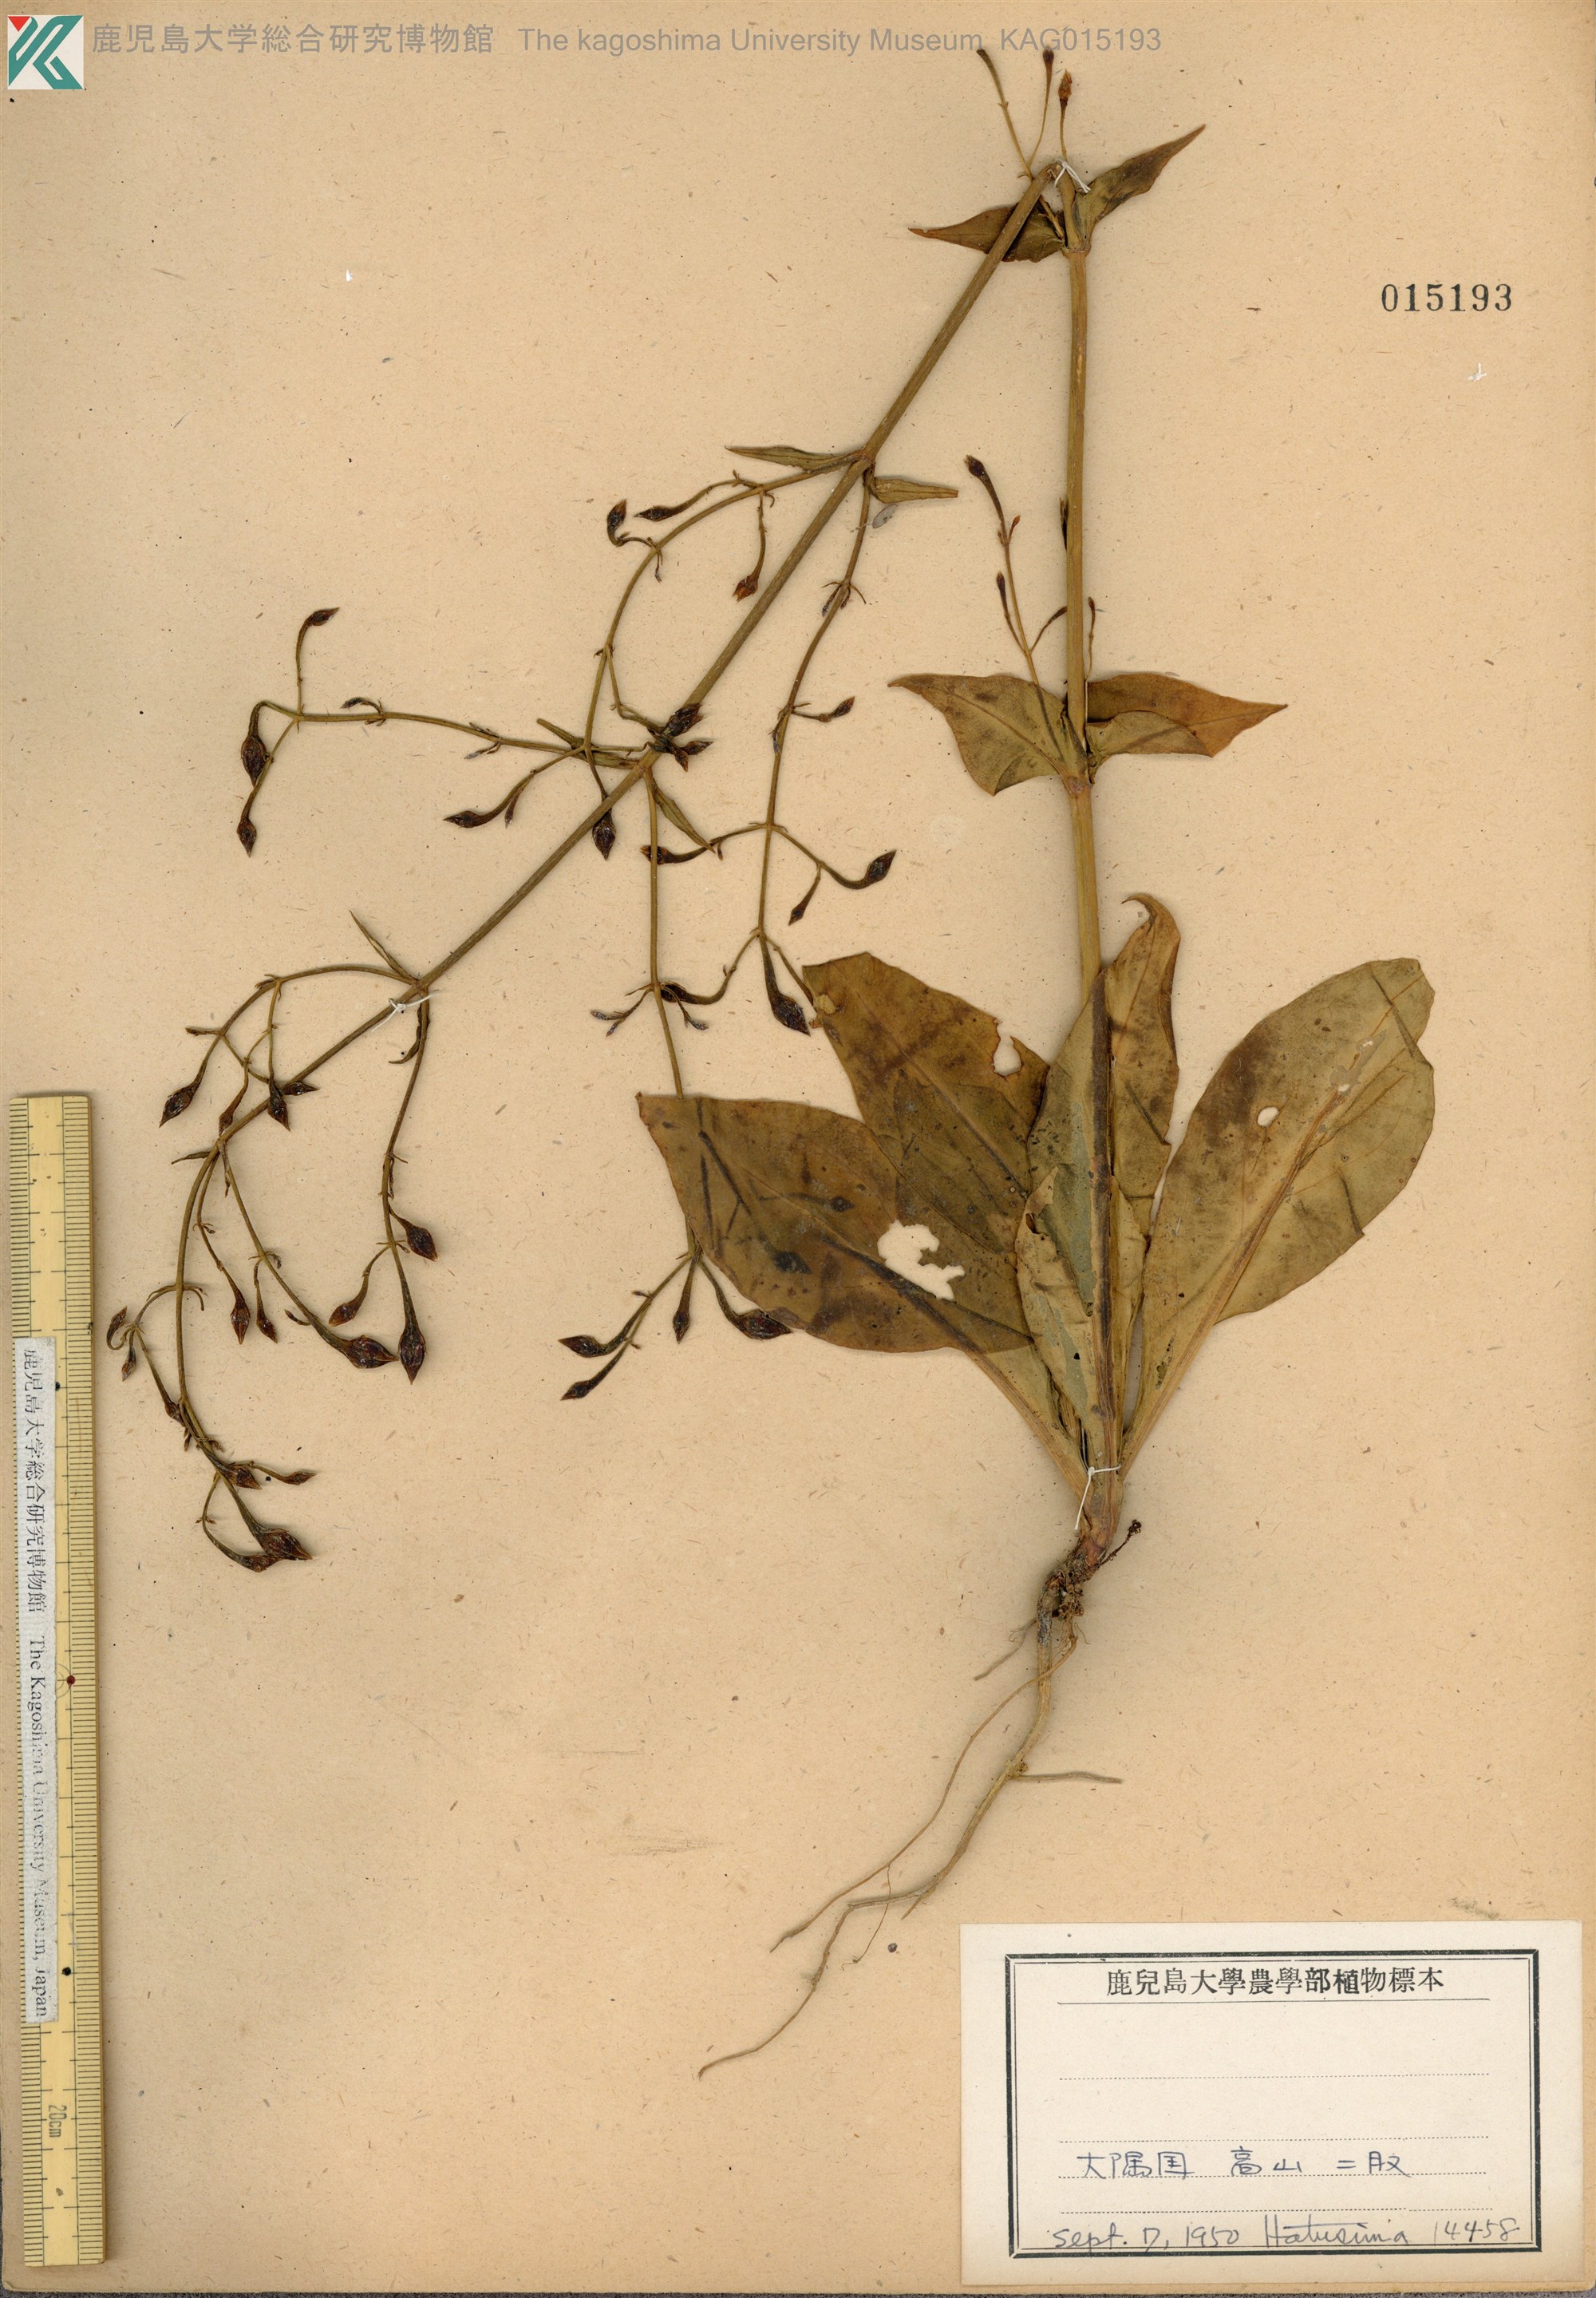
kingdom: Plantae
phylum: Tracheophyta
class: Magnoliopsida
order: Gentianales
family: Gentianaceae
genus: Swertia
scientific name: Swertia tashiroi
